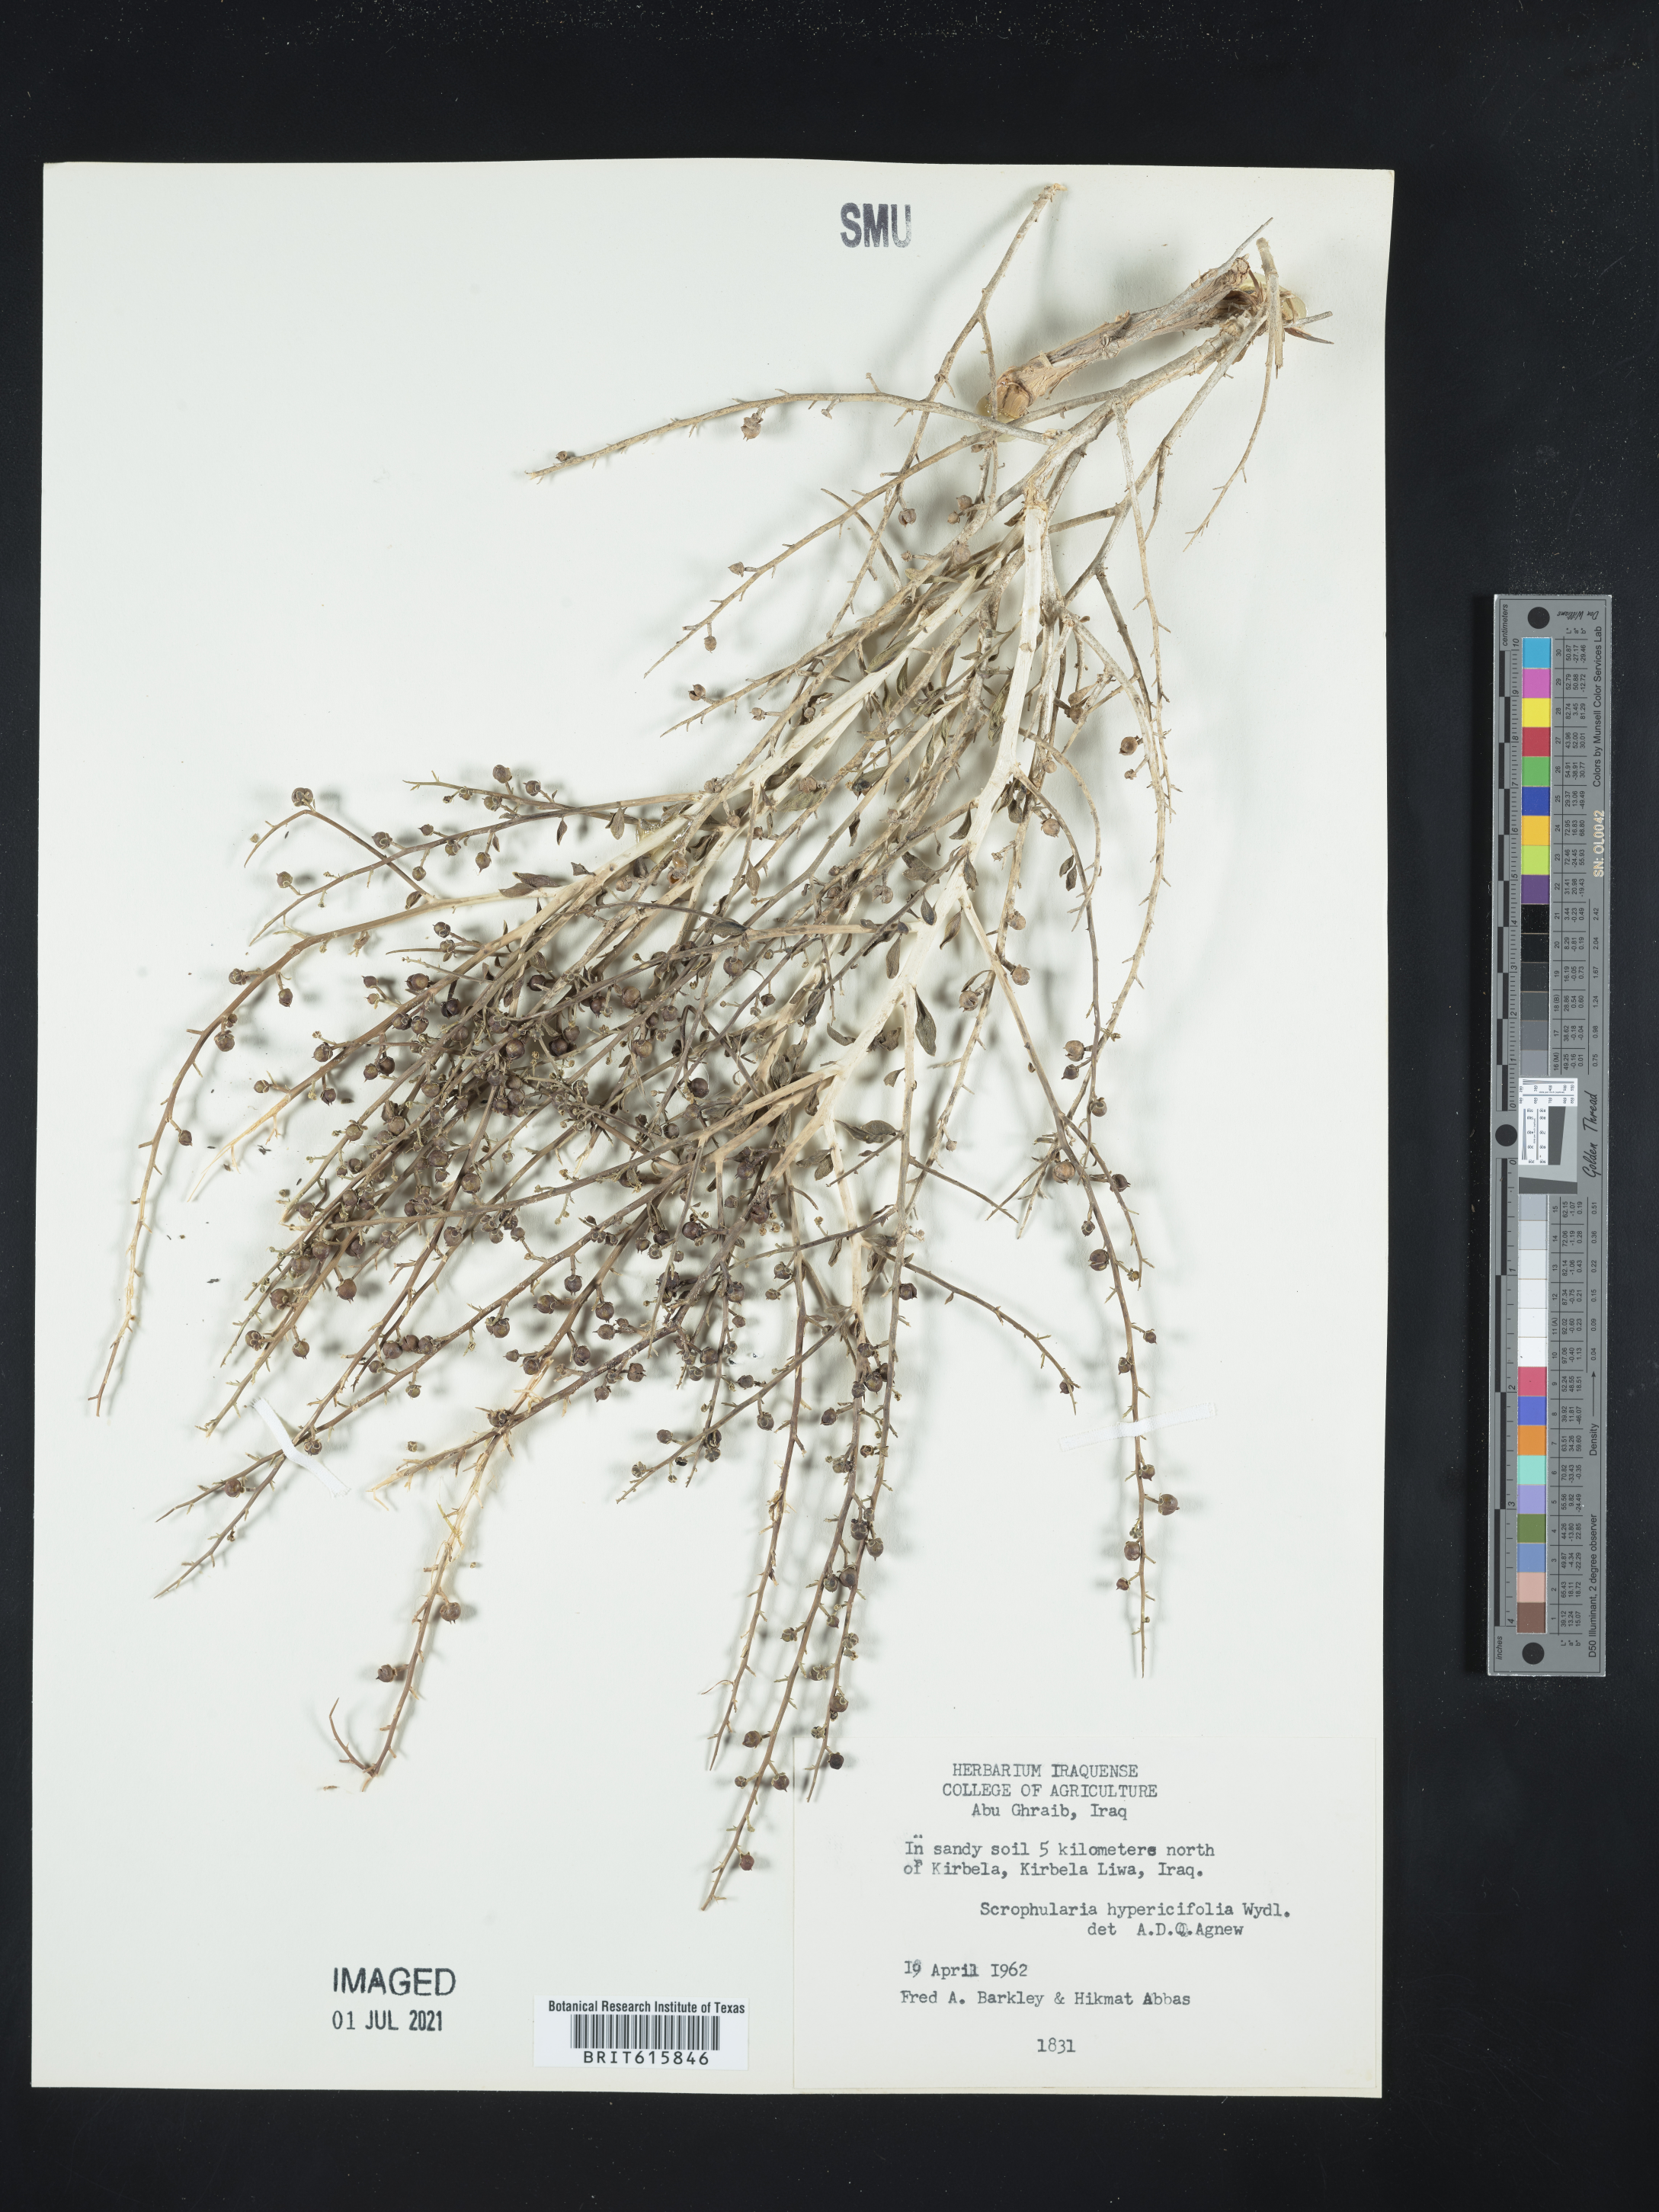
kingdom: Plantae
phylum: Tracheophyta
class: Magnoliopsida
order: Lamiales
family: Scrophulariaceae
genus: Scrophularia
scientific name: Scrophularia hypericifolia
